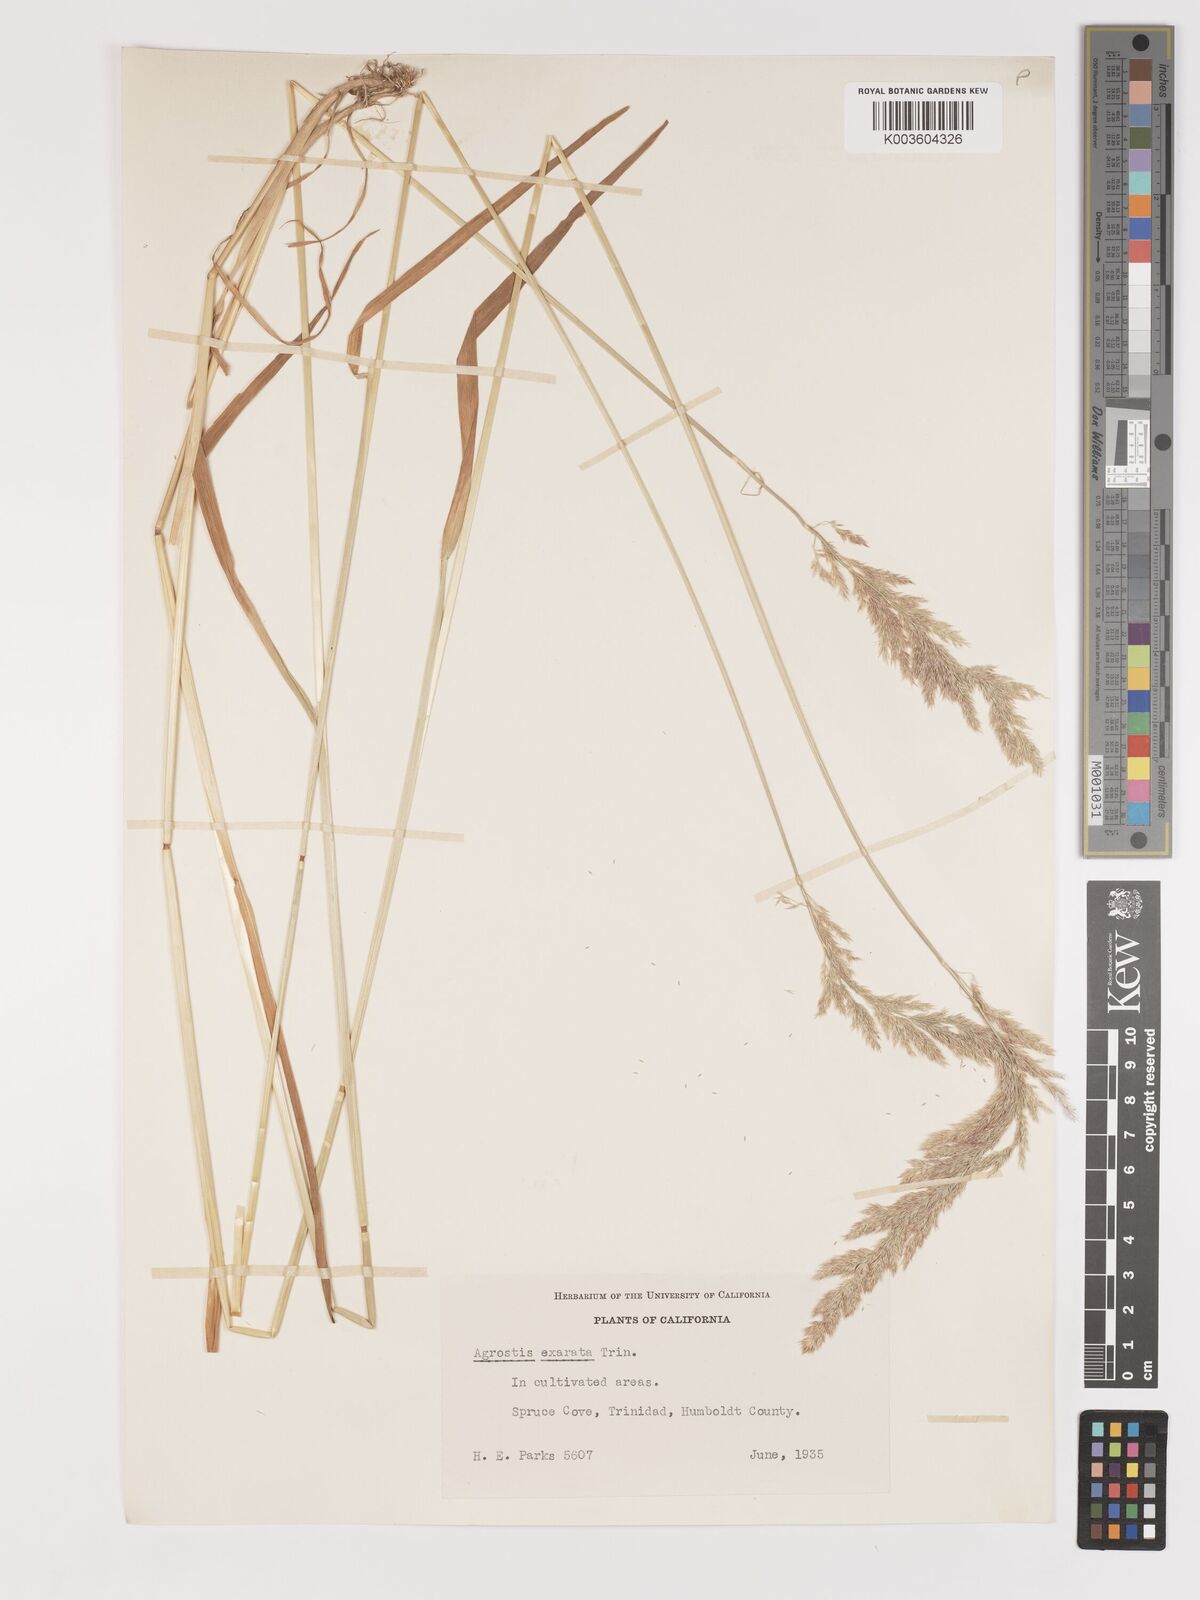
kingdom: Plantae
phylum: Tracheophyta
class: Liliopsida
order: Poales
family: Poaceae
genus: Agrostis
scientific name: Agrostis exarata
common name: Spike bent
